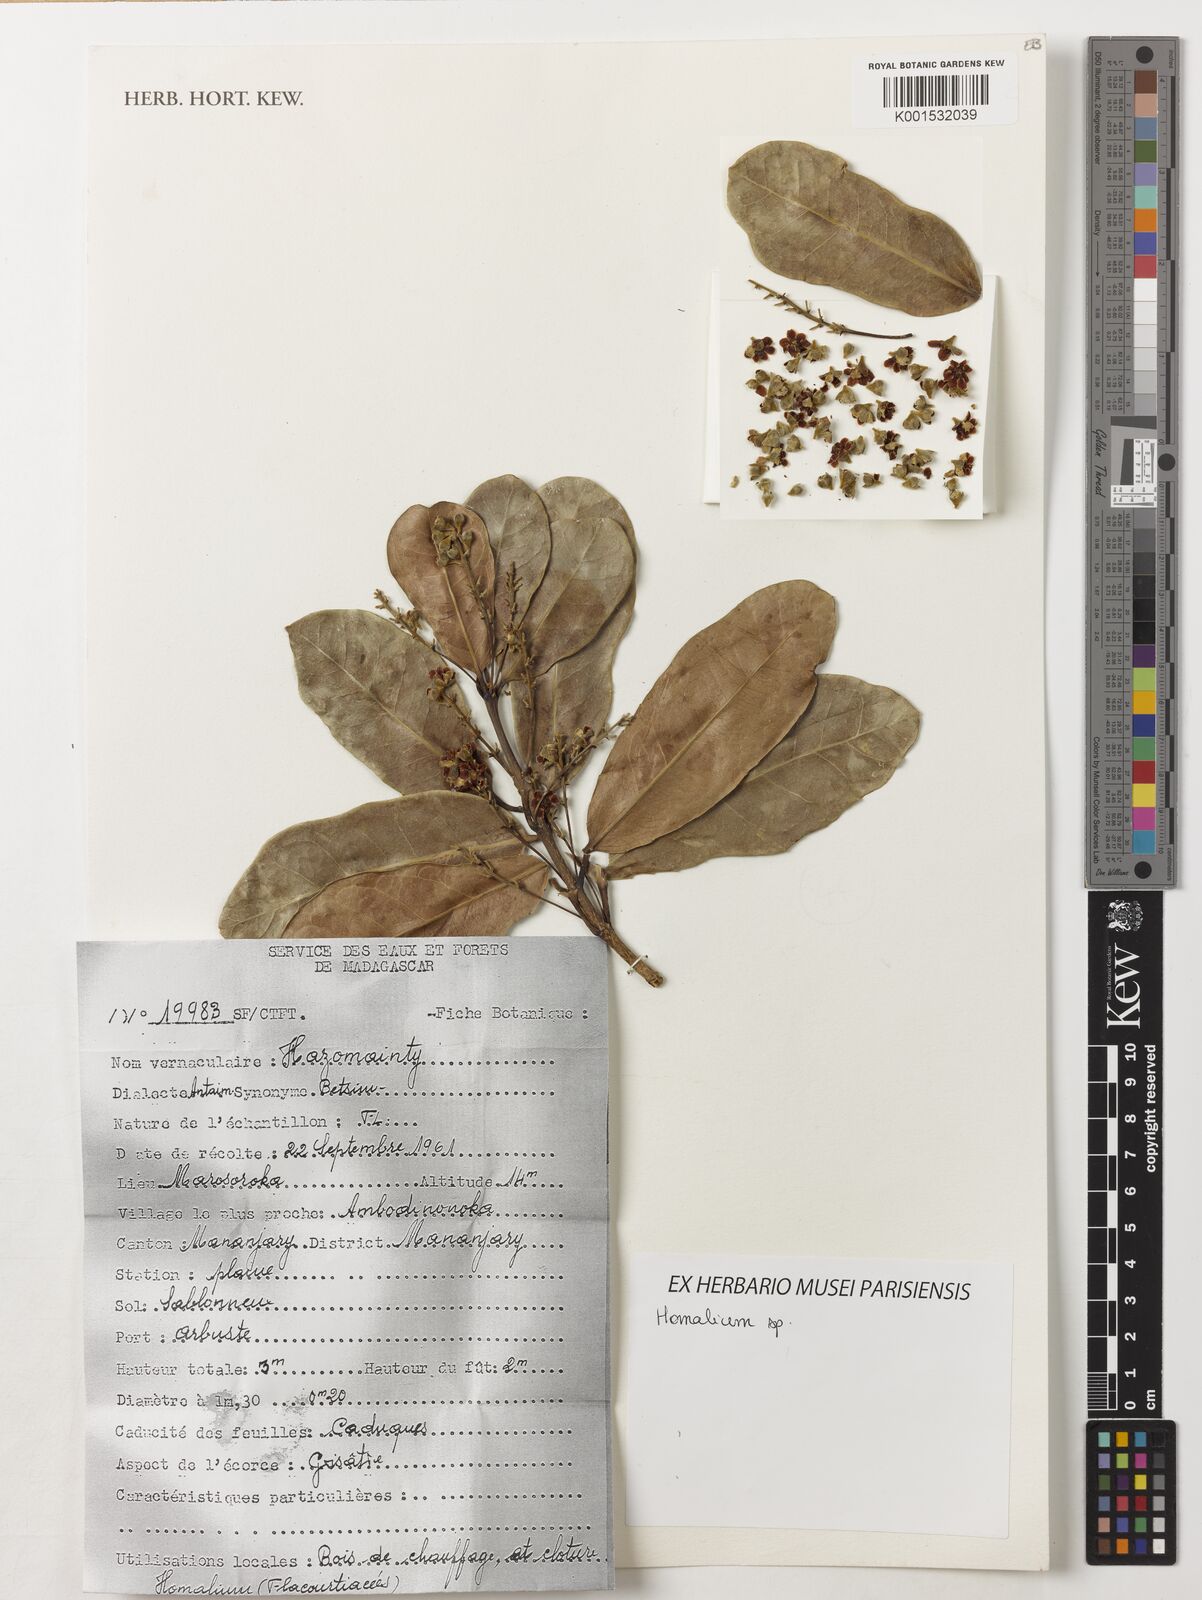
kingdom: Plantae
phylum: Tracheophyta
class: Magnoliopsida
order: Malpighiales
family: Salicaceae
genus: Homalium
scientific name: Homalium
